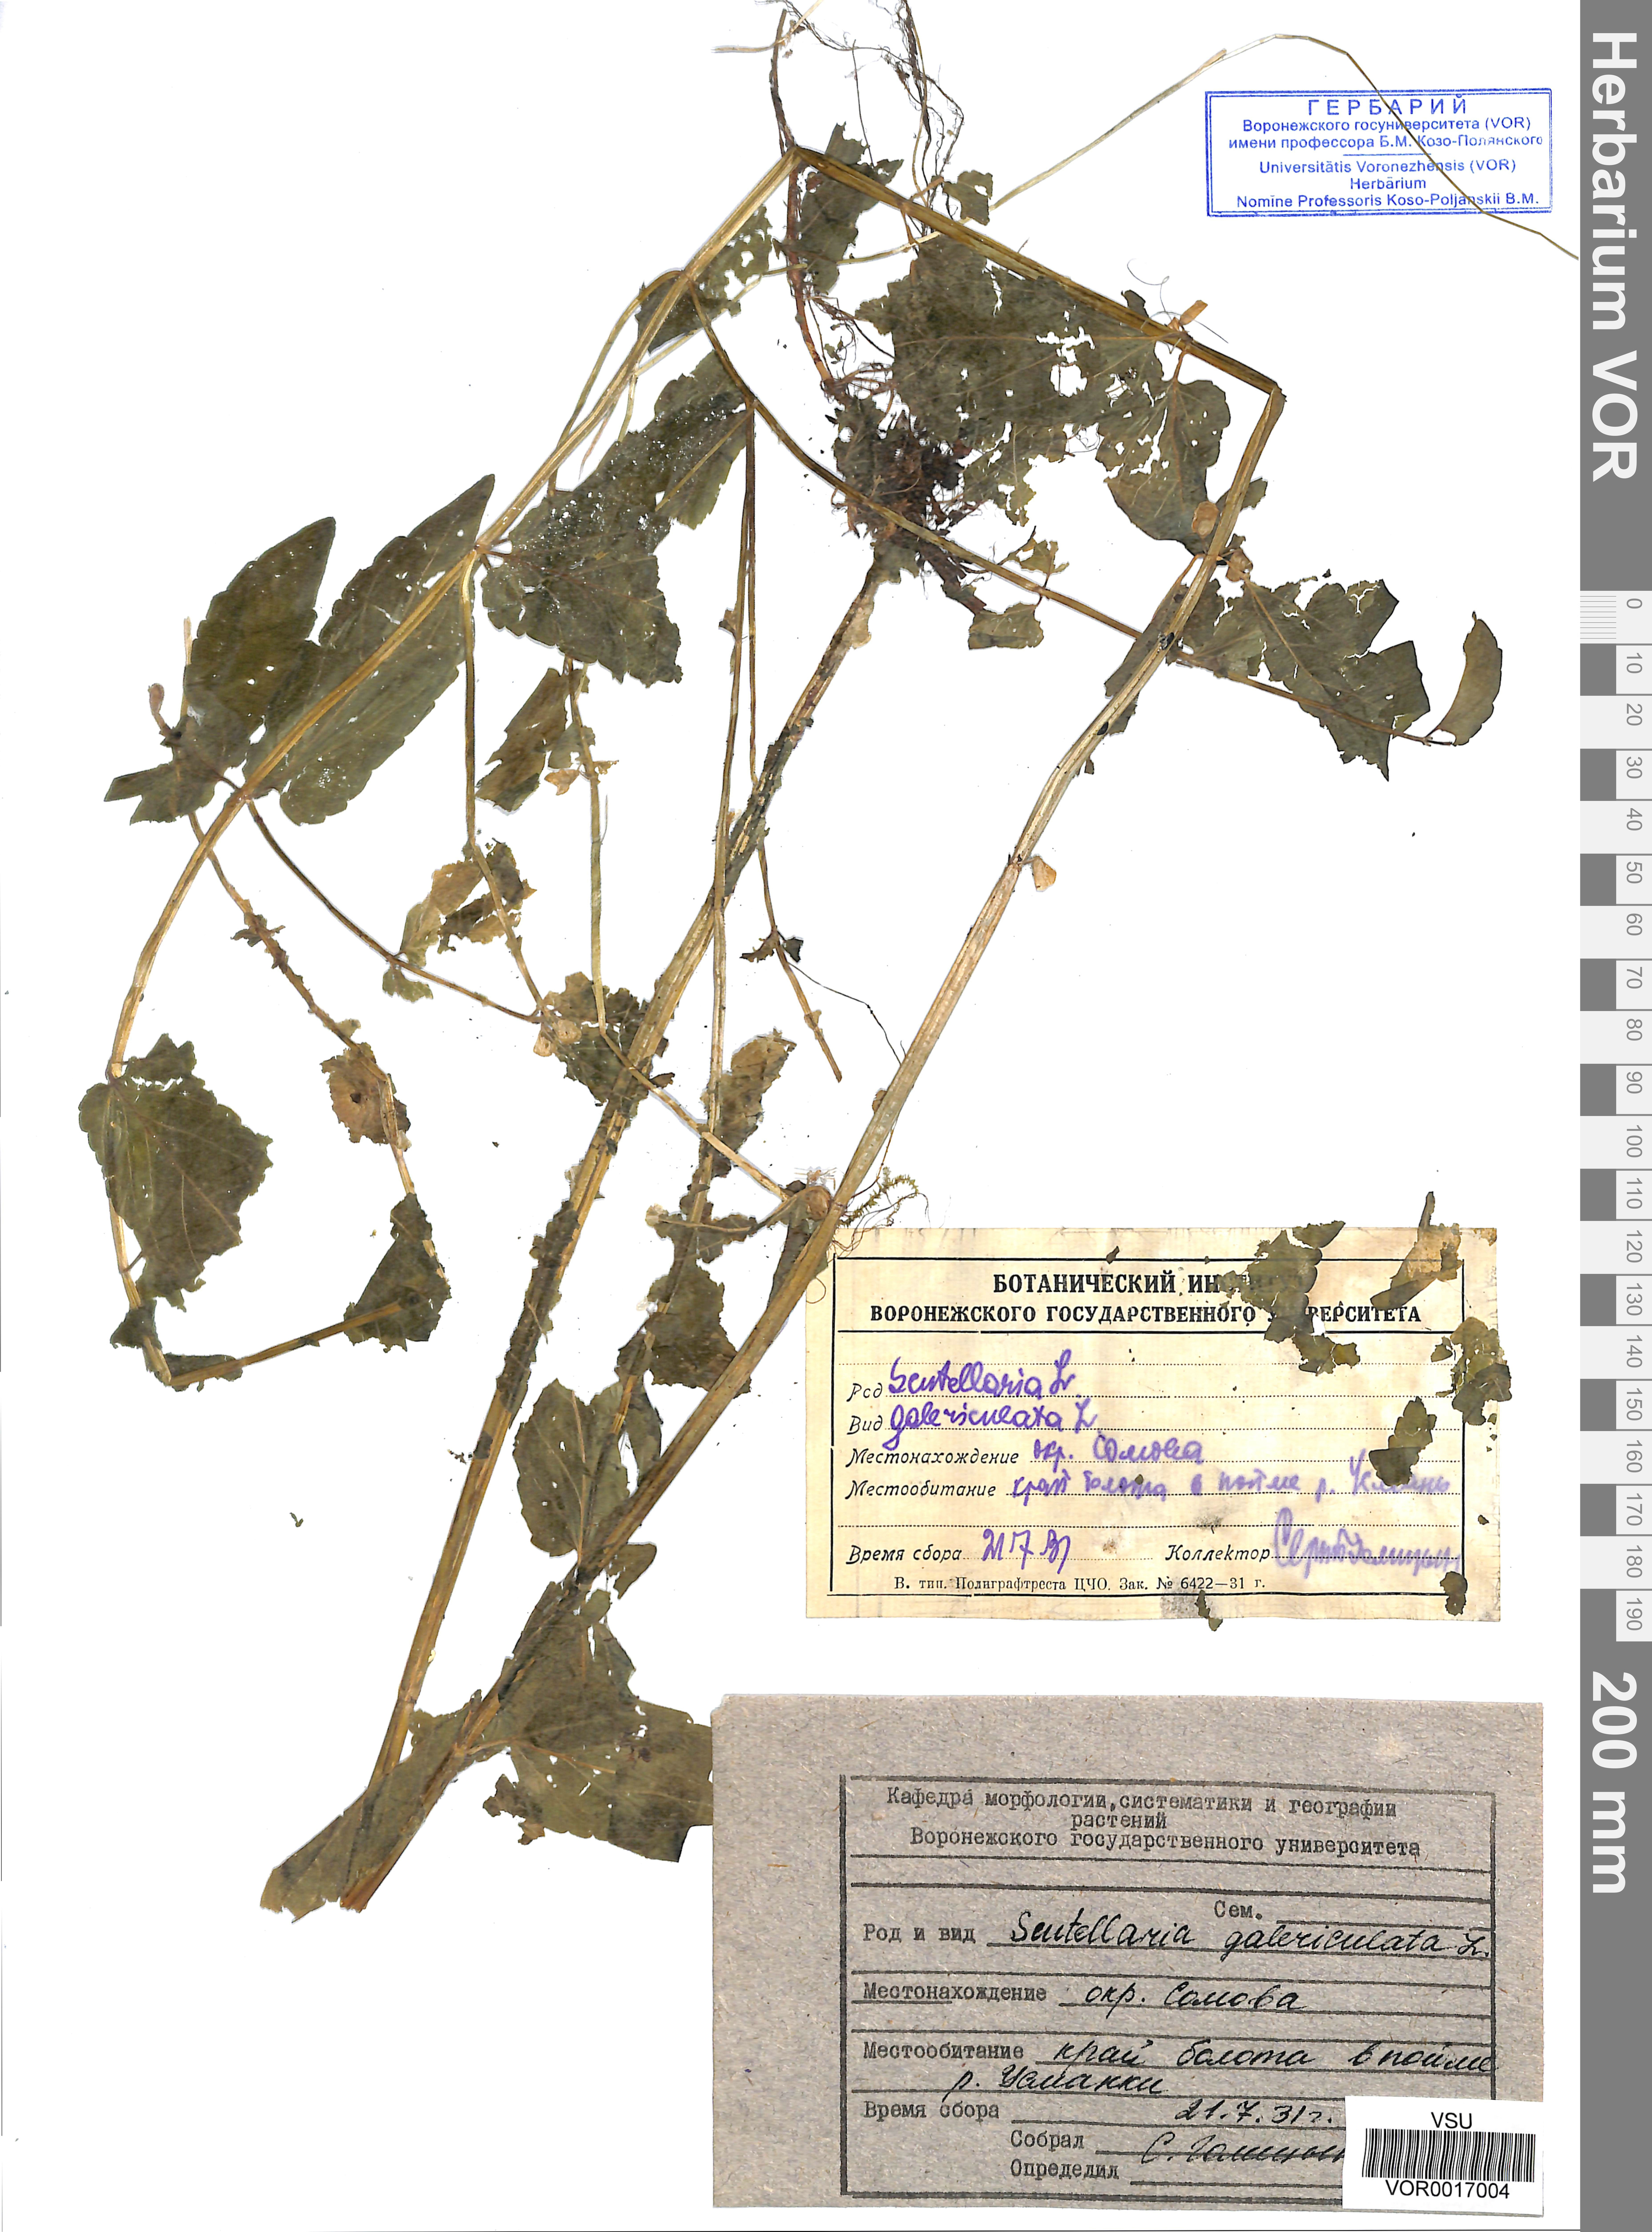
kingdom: Plantae
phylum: Tracheophyta
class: Magnoliopsida
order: Lamiales
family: Lamiaceae
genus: Scutellaria
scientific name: Scutellaria galericulata
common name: Skullcap
